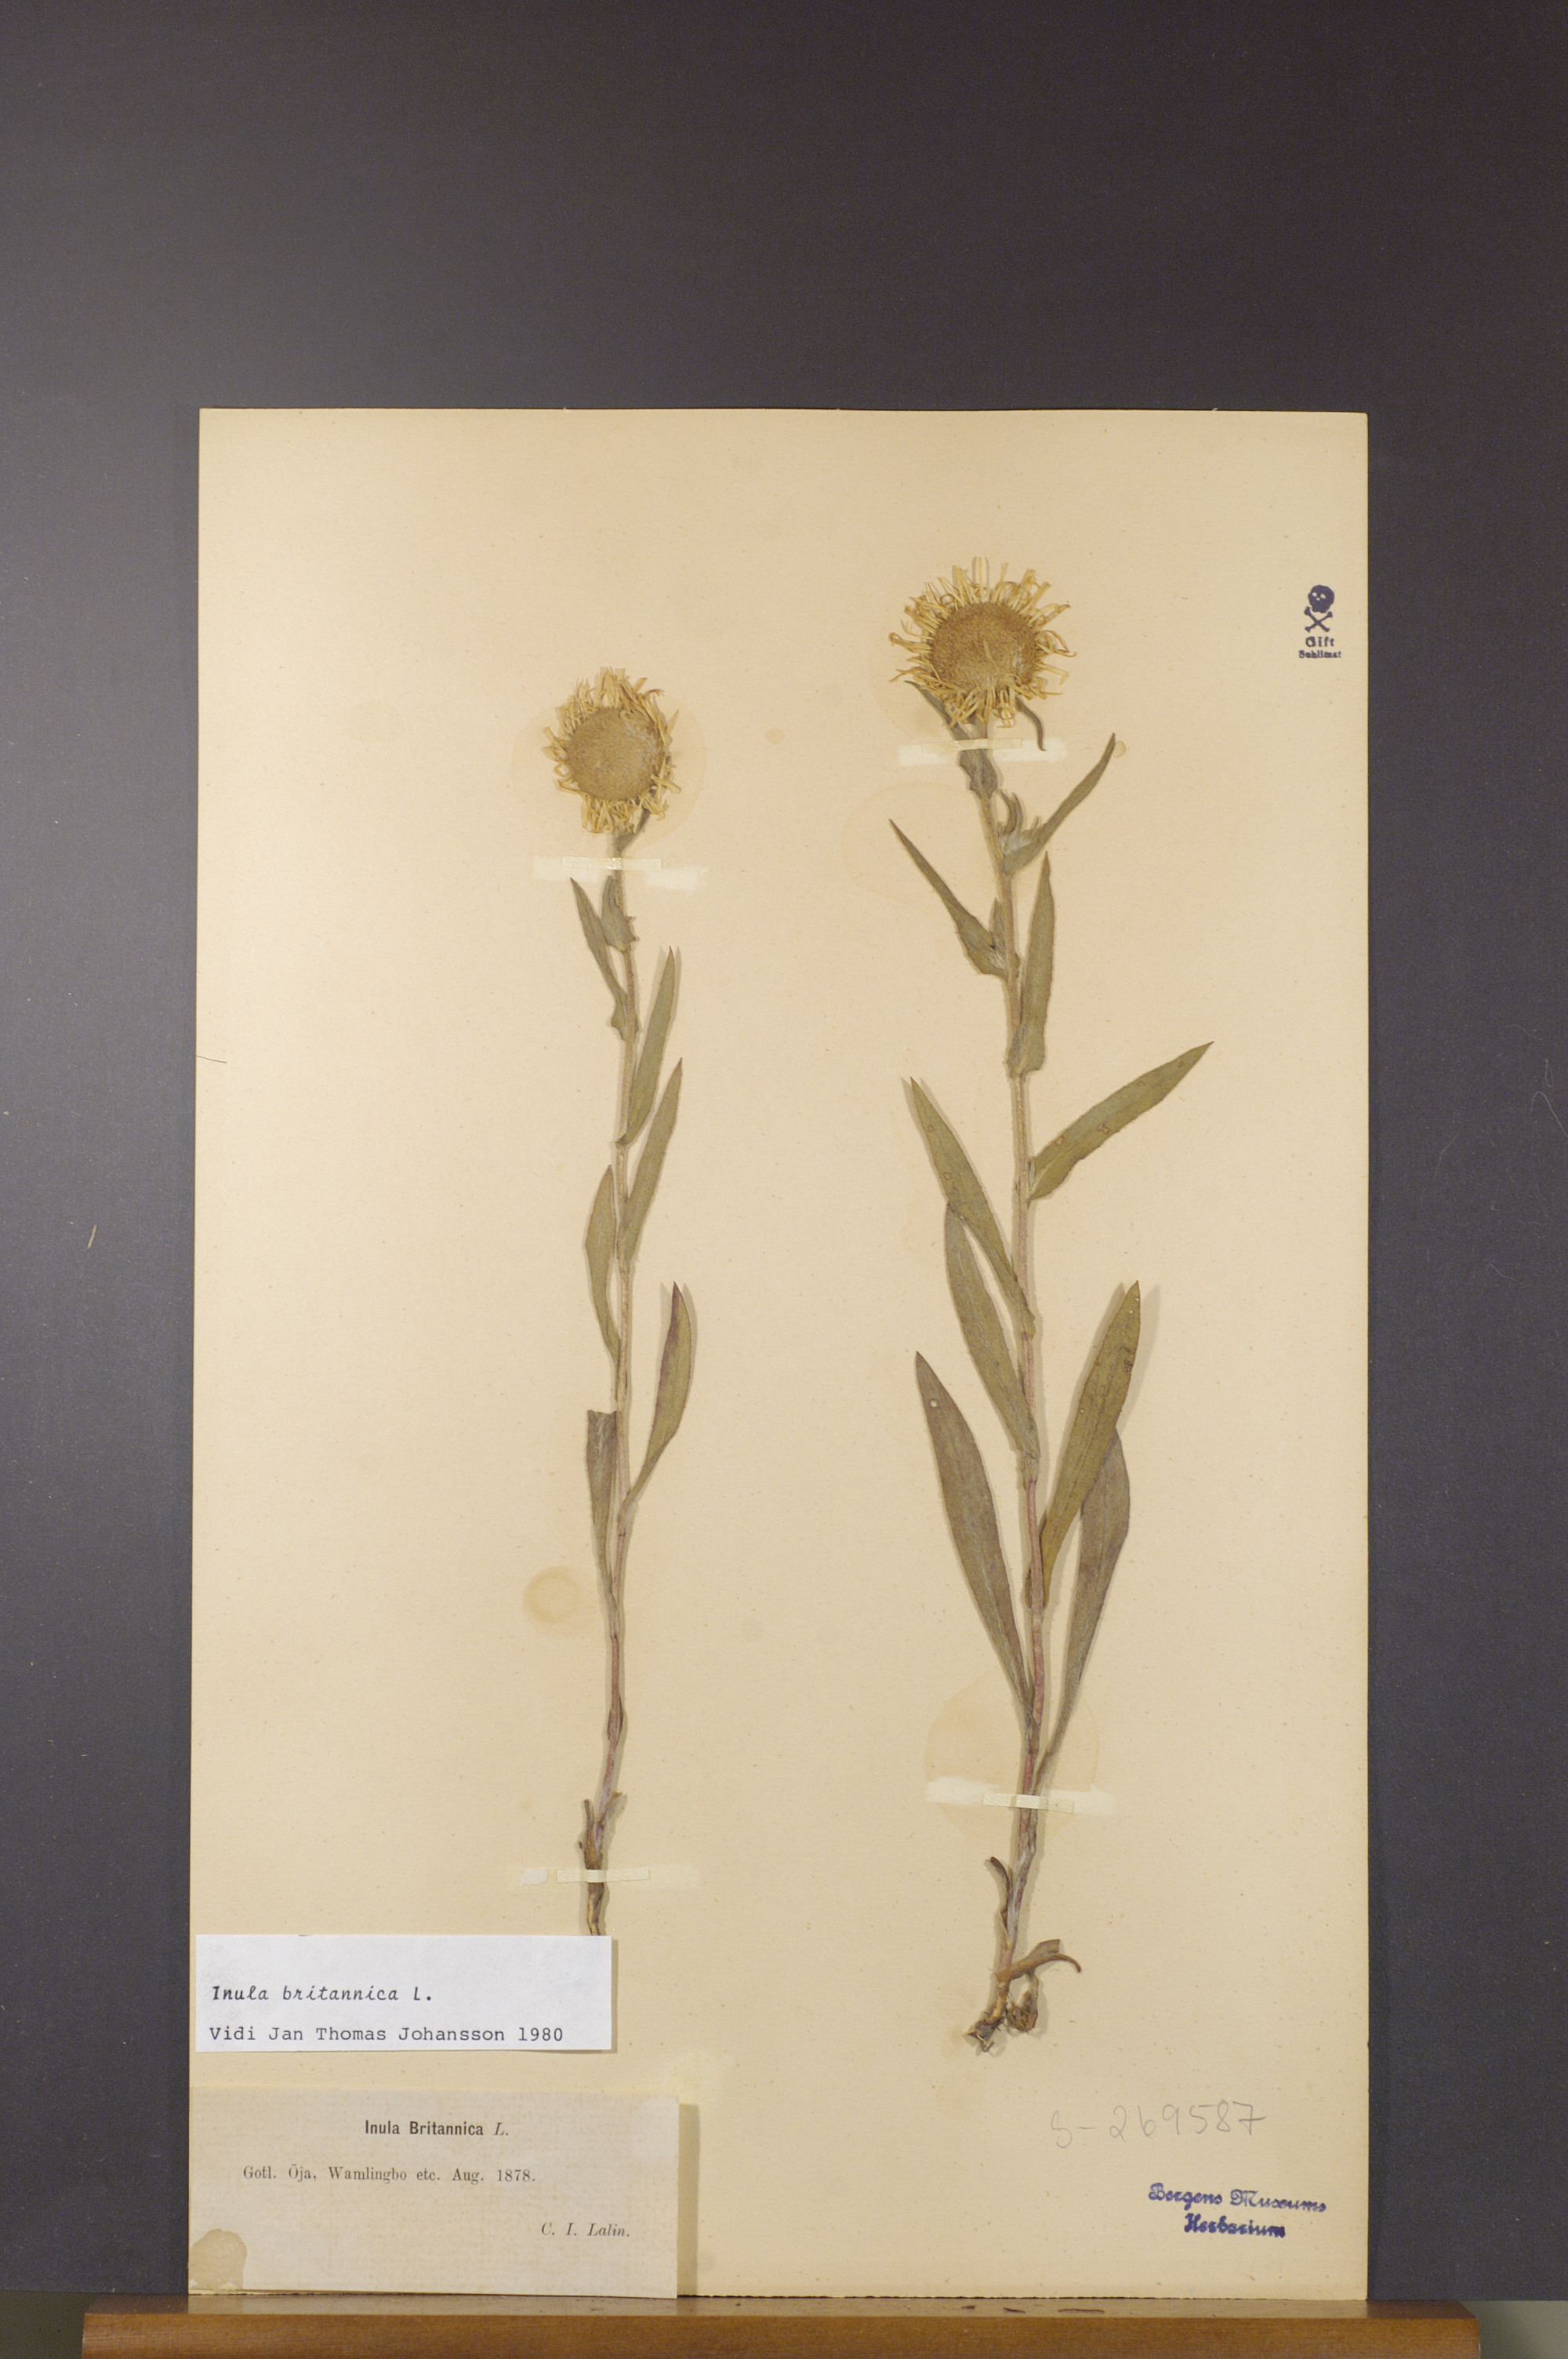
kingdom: Plantae
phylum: Tracheophyta
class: Magnoliopsida
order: Asterales
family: Asteraceae
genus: Pentanema
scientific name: Pentanema britannicum
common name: British elecampane
